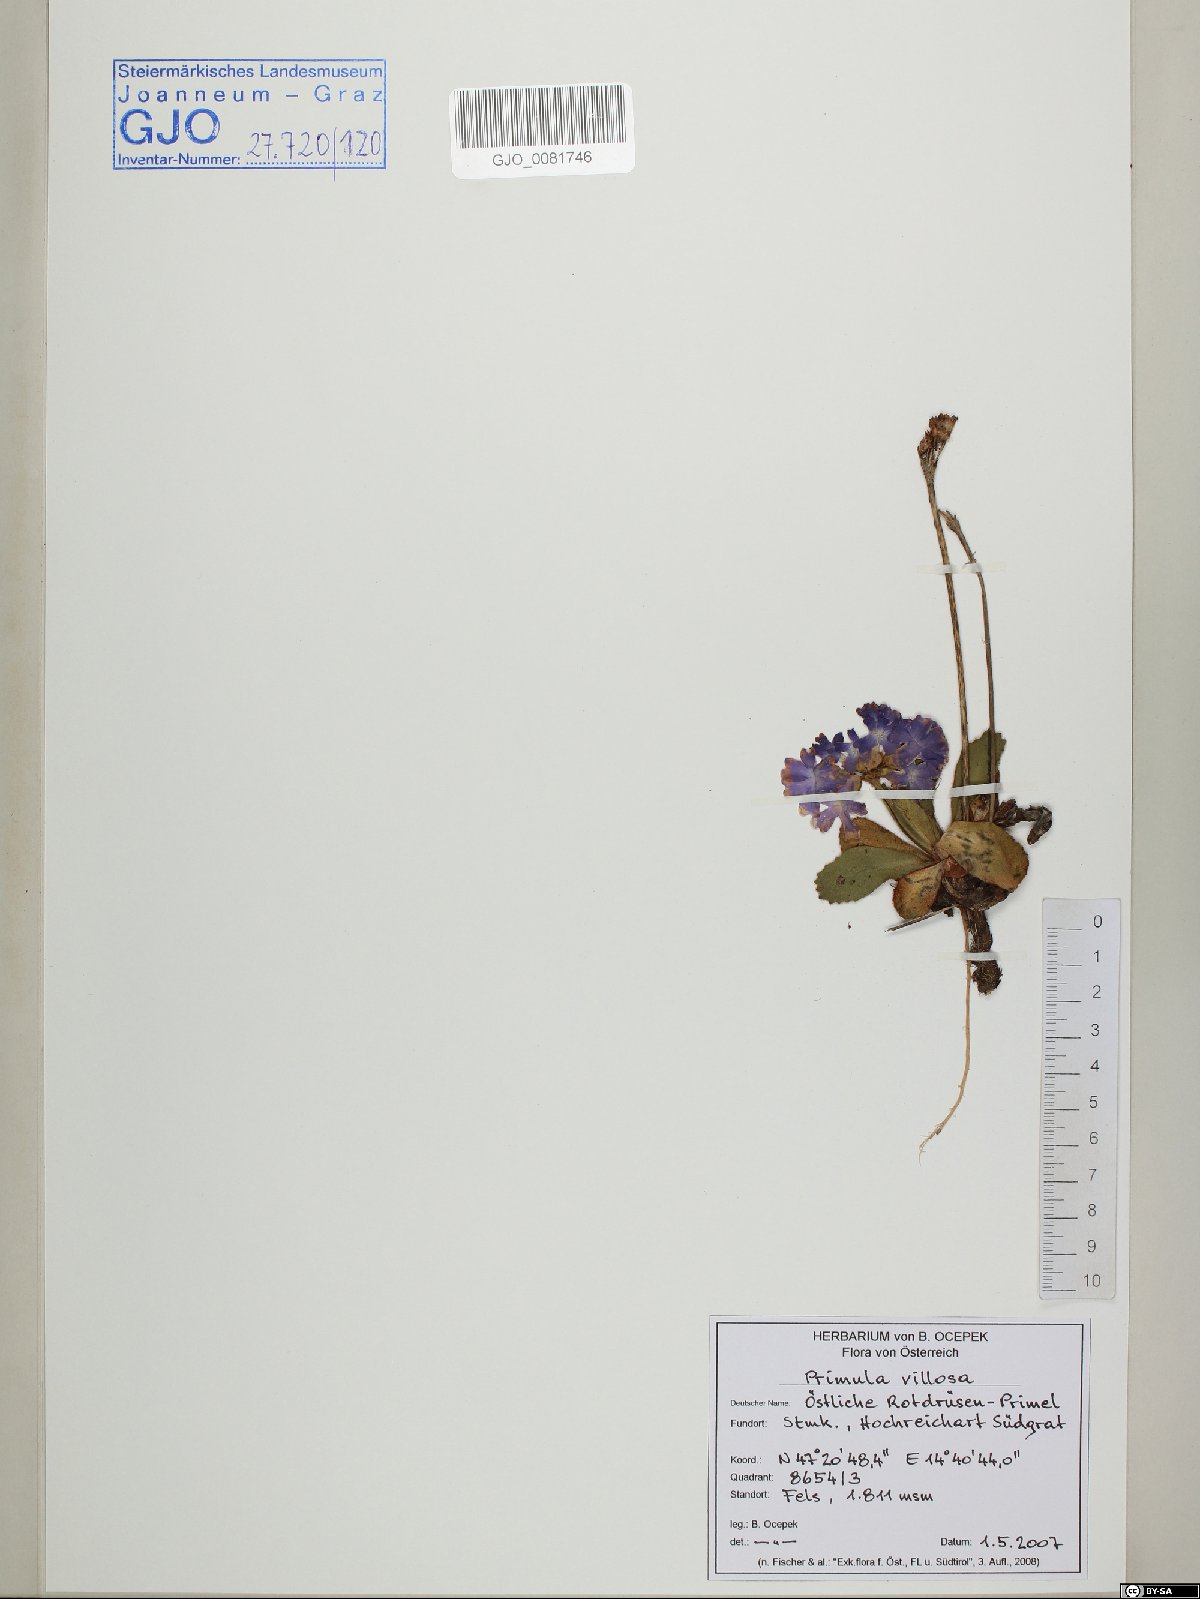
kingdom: Plantae
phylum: Tracheophyta
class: Magnoliopsida
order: Ericales
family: Primulaceae
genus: Primula
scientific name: Primula villosa
